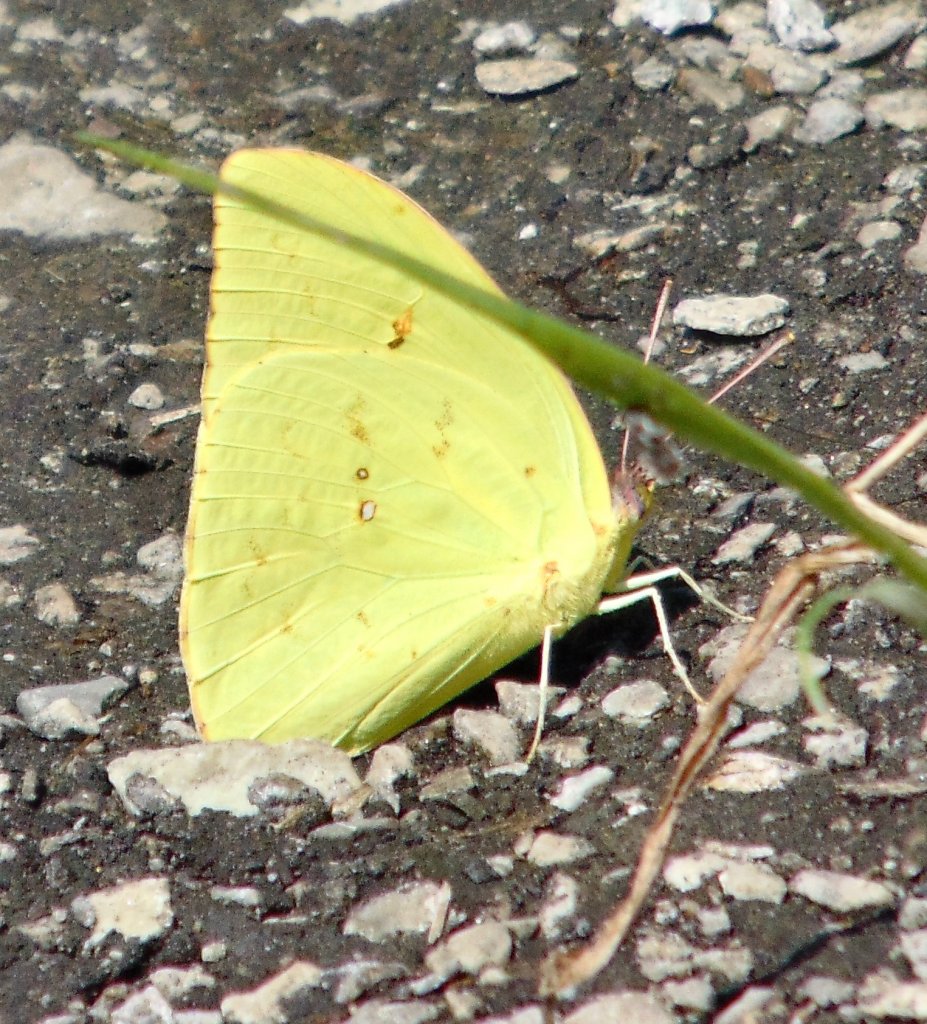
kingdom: Animalia
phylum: Arthropoda
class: Insecta
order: Lepidoptera
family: Pieridae
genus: Phoebis
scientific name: Phoebis sennae
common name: Cloudless Sulphur
